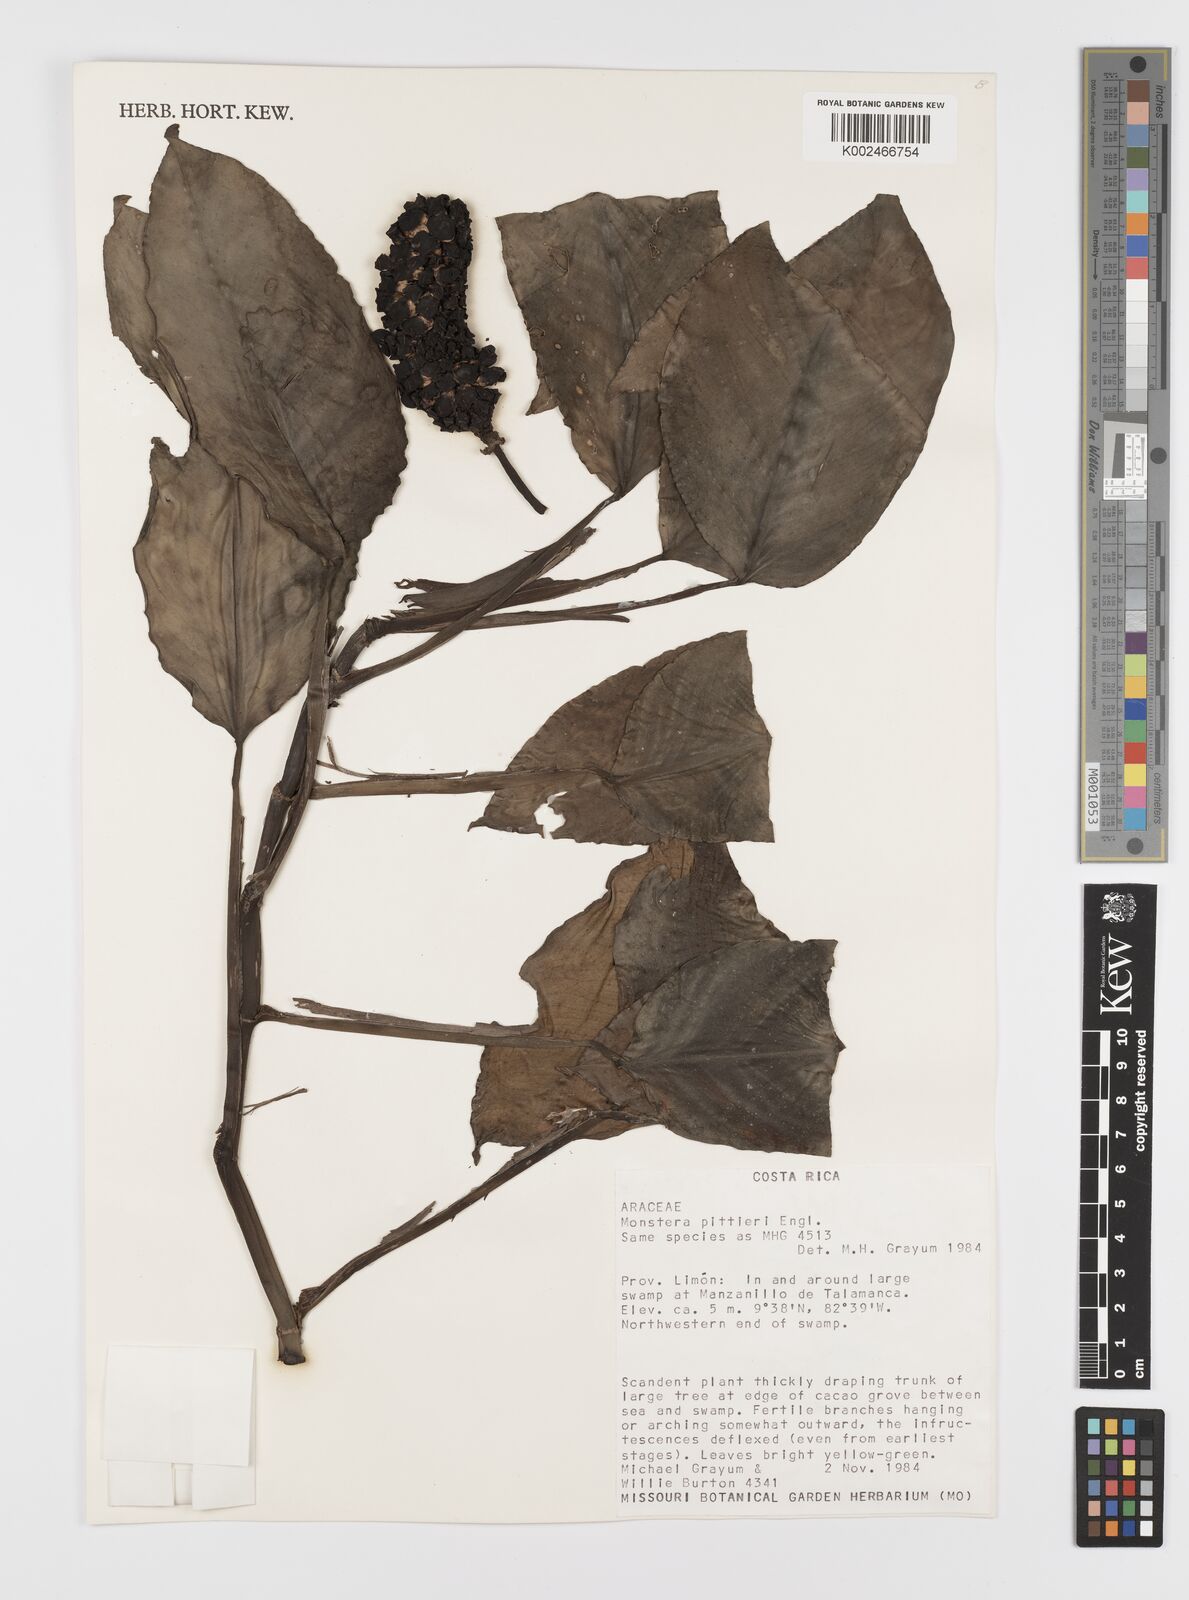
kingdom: Plantae
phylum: Tracheophyta
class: Liliopsida
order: Alismatales
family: Araceae
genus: Monstera
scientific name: Monstera pittieri
